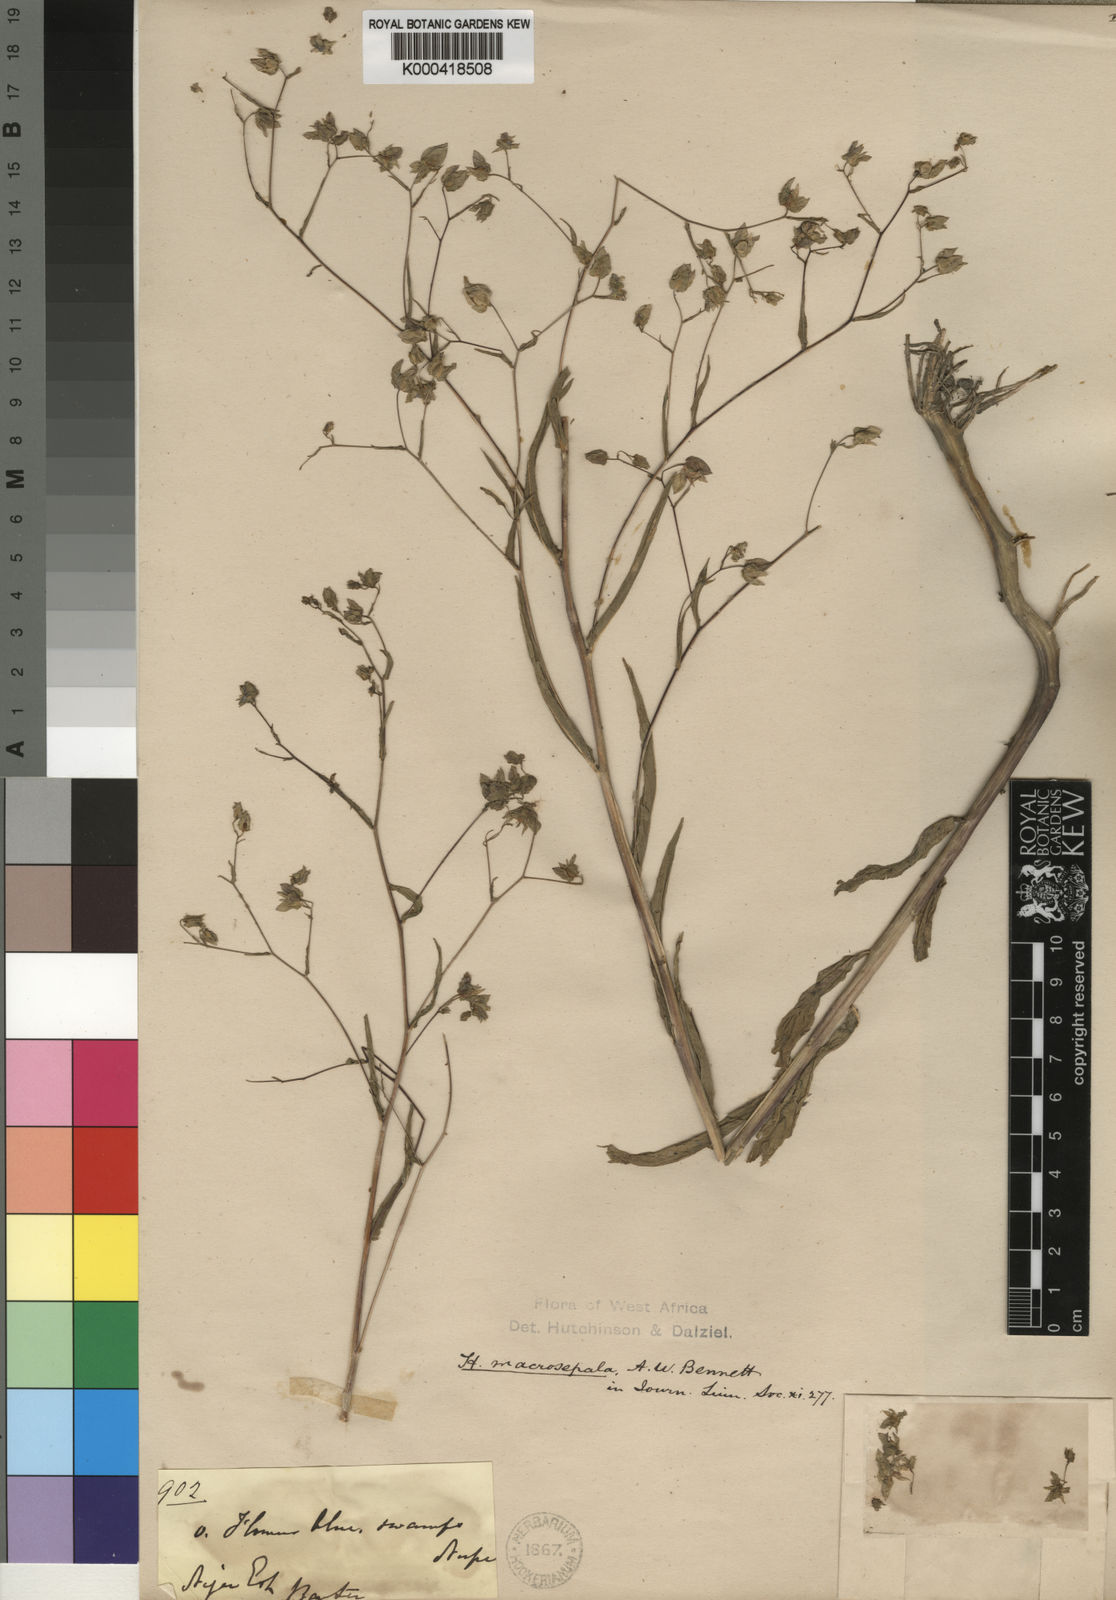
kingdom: Plantae
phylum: Tracheophyta
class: Magnoliopsida
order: Solanales
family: Hydroleaceae
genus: Hydrolea
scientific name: Hydrolea macrosepala
